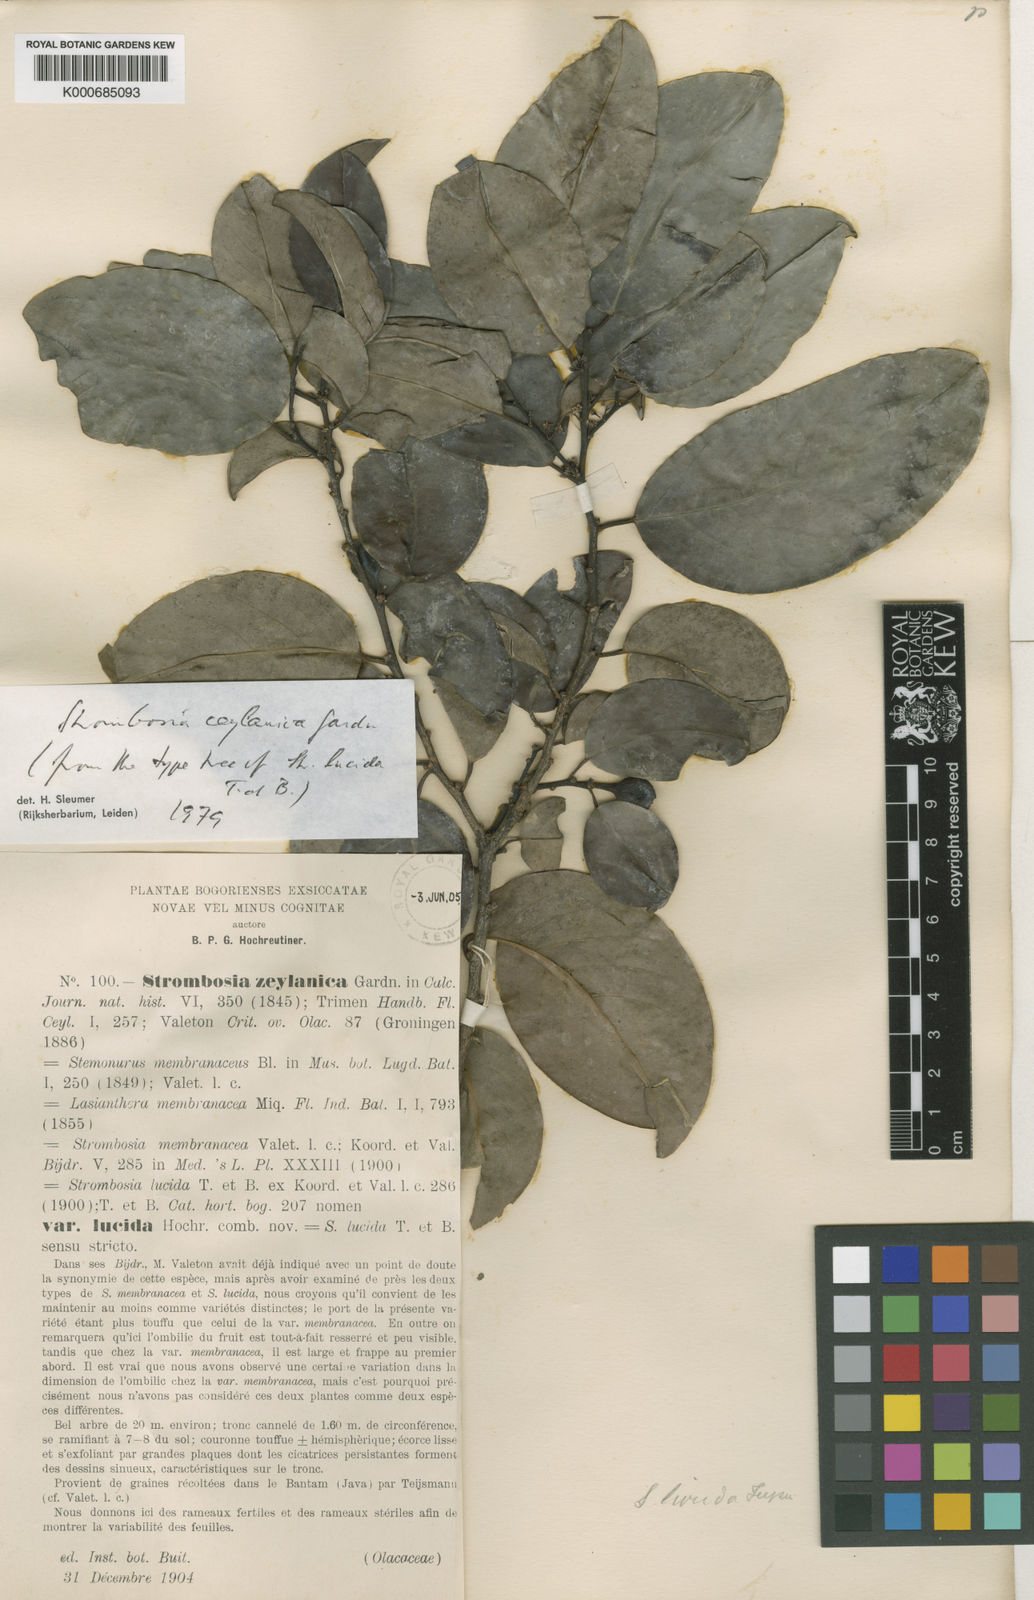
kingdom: Plantae
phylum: Tracheophyta
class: Magnoliopsida
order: Santalales
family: Strombosiaceae
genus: Strombosia
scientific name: Strombosia ceylanica
